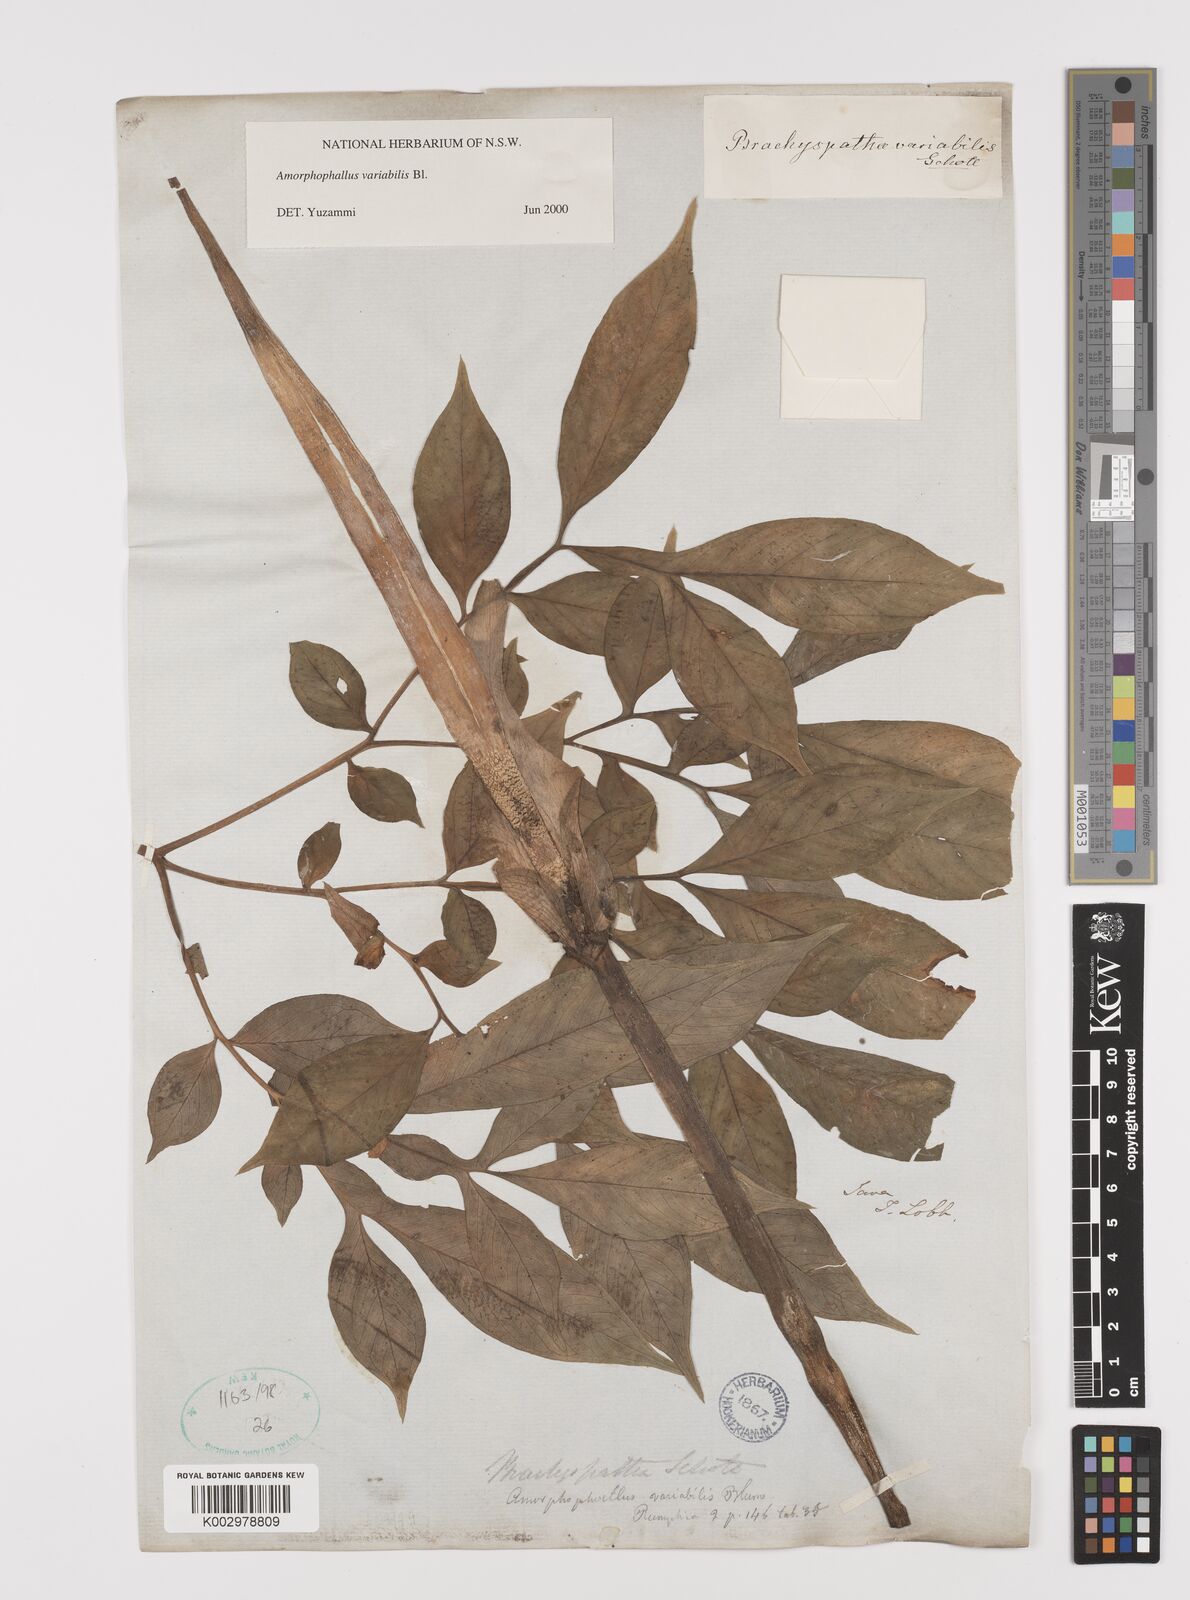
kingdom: Plantae
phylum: Tracheophyta
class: Liliopsida
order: Alismatales
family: Araceae
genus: Amorphophallus
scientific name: Amorphophallus variabilis
